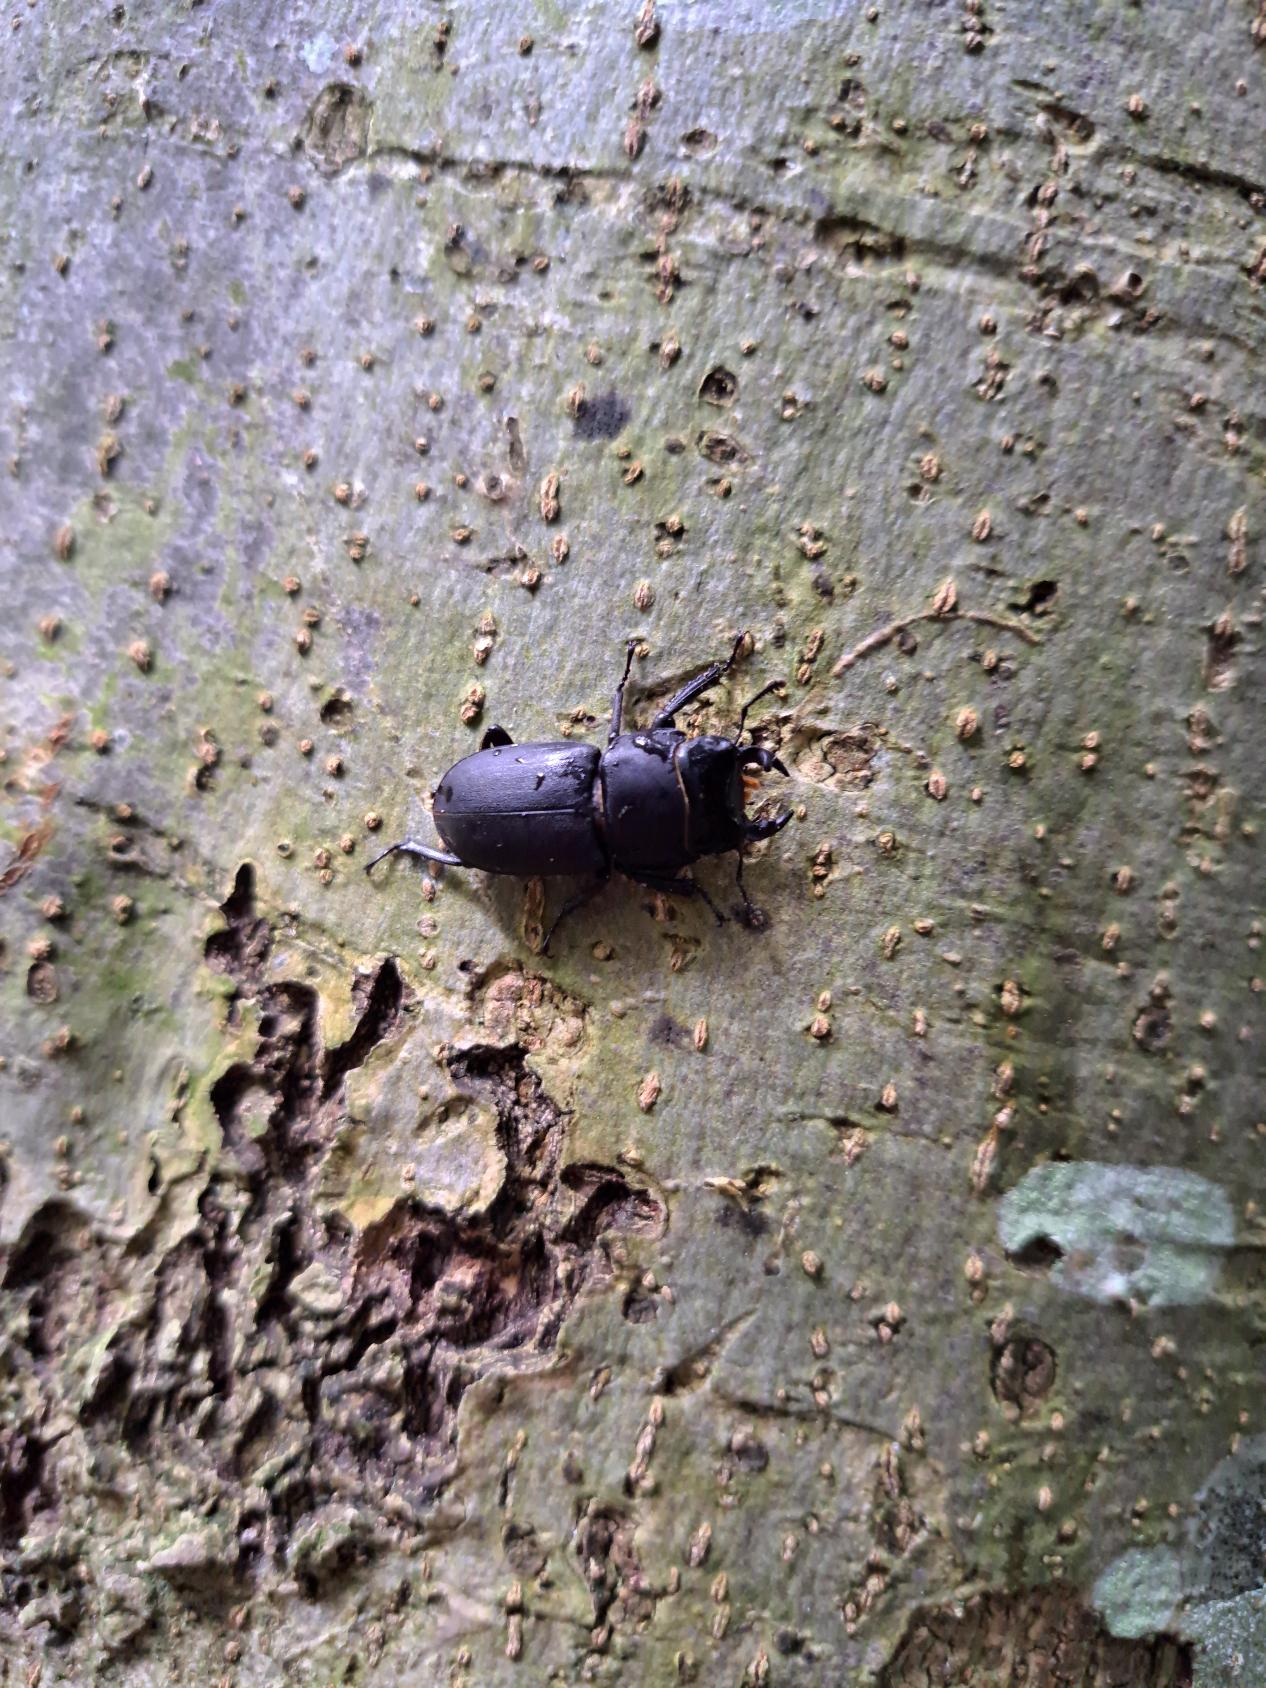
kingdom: Animalia
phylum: Arthropoda
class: Insecta
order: Coleoptera
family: Lucanidae
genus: Dorcus
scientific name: Dorcus parallelipipedus
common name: Bøghjort
